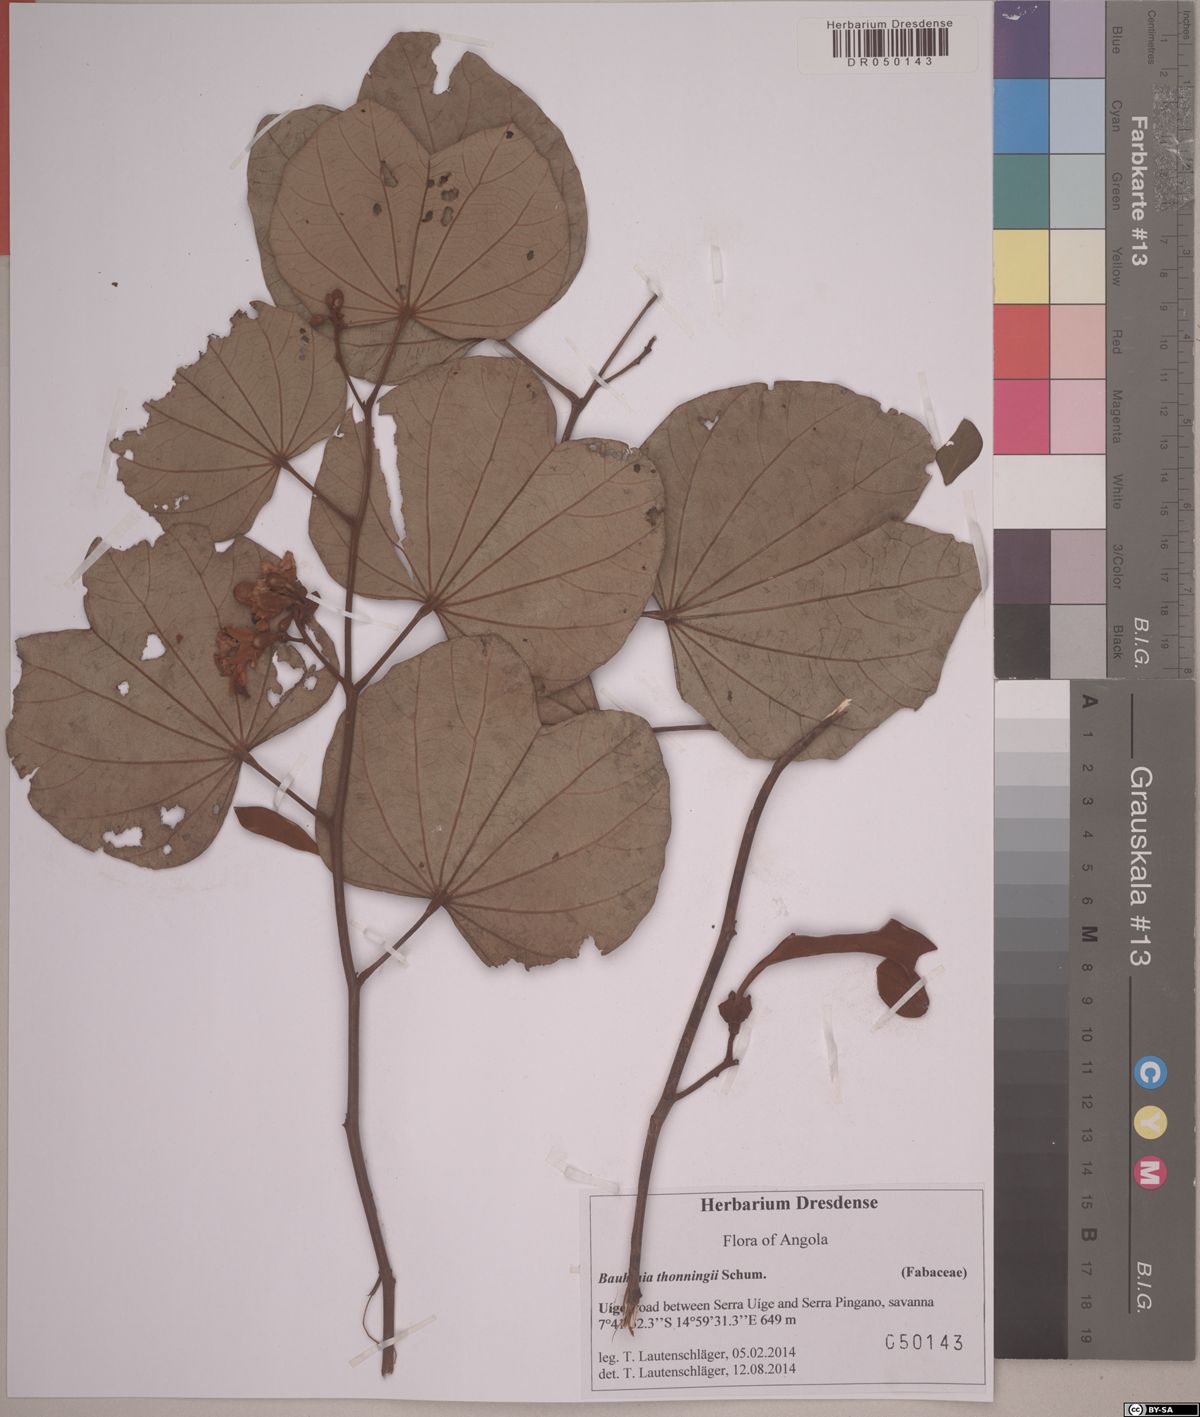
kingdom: Plantae
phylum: Tracheophyta
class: Magnoliopsida
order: Fabales
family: Fabaceae
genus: Piliostigma
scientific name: Piliostigma thonningii
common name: Kao
